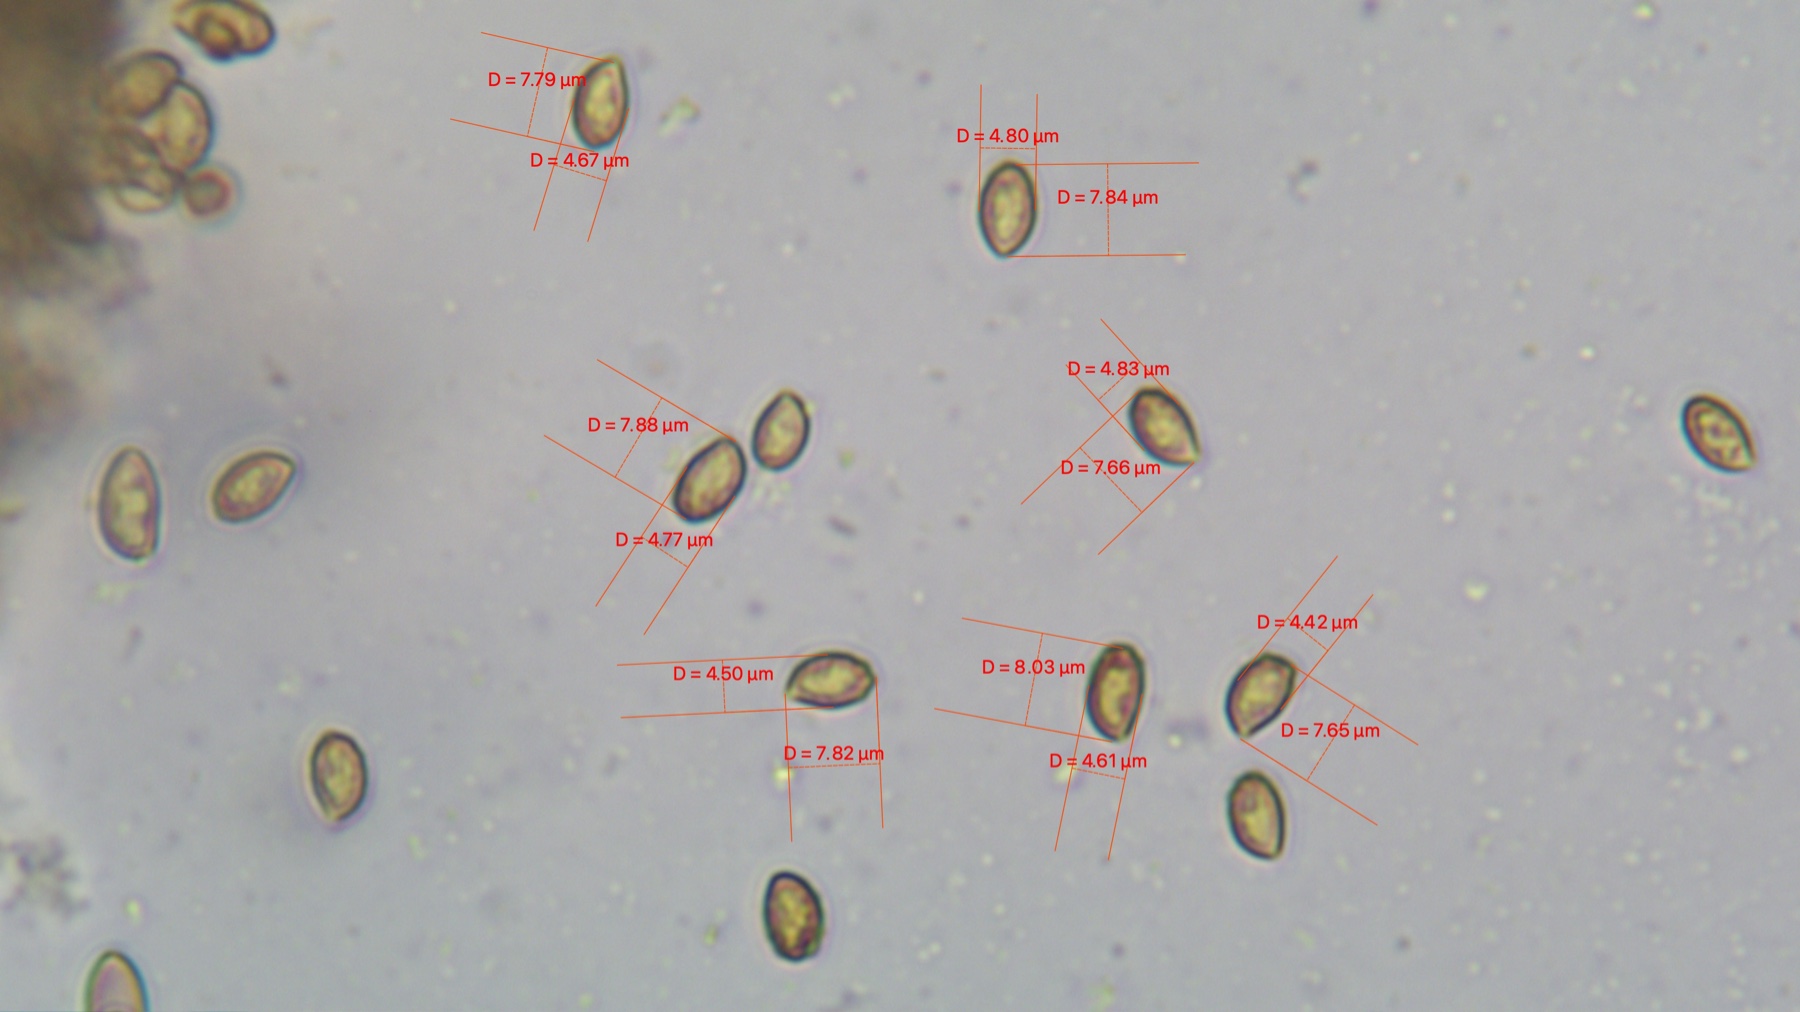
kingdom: Fungi
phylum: Basidiomycota
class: Agaricomycetes
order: Agaricales
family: Cortinariaceae
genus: Cortinarius
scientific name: Cortinarius castaneopallidus
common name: bronzetrævlet slørhat
